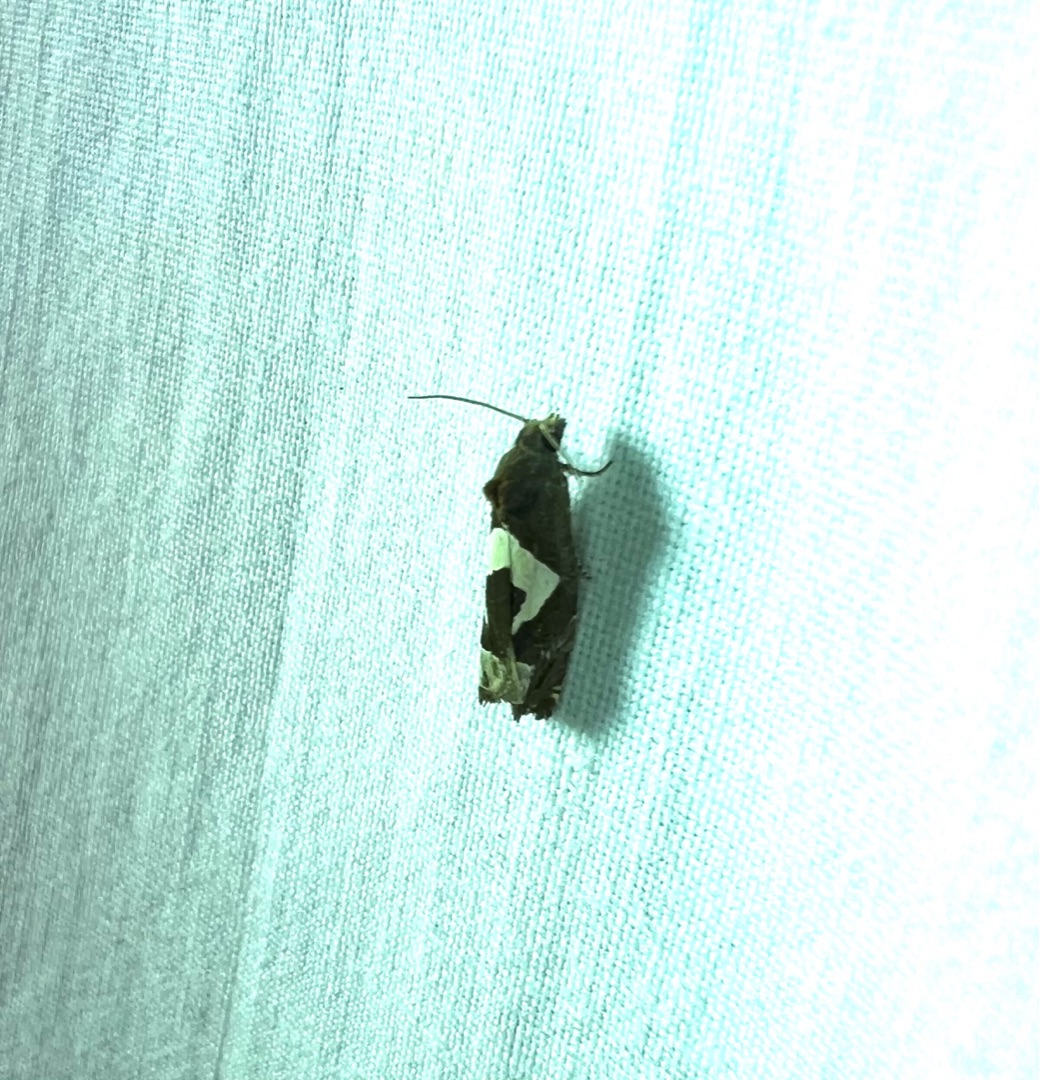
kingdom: Animalia
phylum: Arthropoda
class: Insecta
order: Lepidoptera
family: Tortricidae
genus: Epiblema
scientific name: Epiblema foenella
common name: Gråbynkegallevikler
